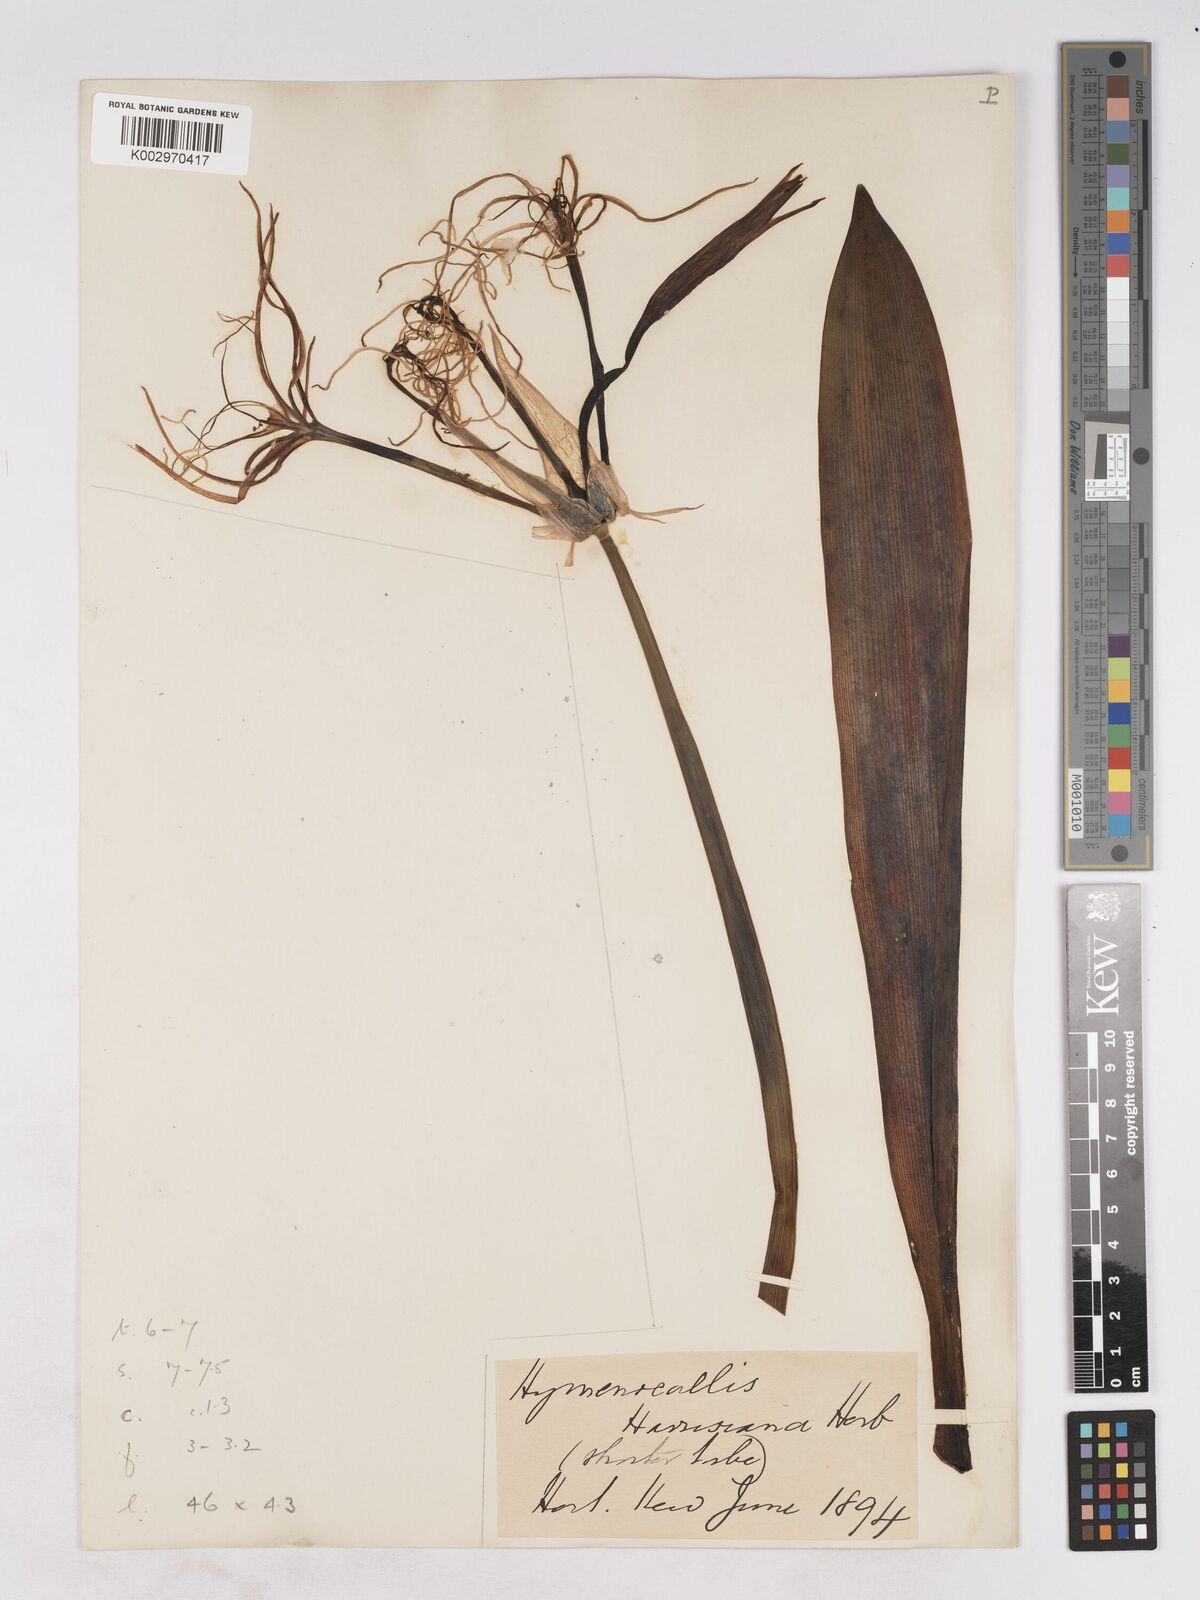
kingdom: Plantae
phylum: Tracheophyta
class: Liliopsida
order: Asparagales
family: Amaryllidaceae
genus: Hymenocallis
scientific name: Hymenocallis harrisiana
